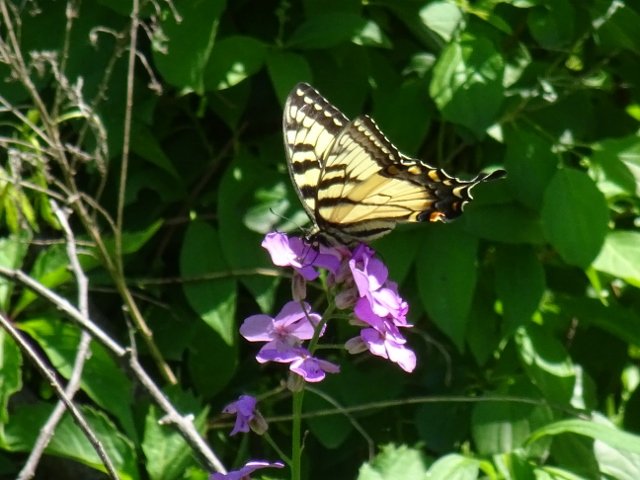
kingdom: Animalia
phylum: Arthropoda
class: Insecta
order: Lepidoptera
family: Papilionidae
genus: Pterourus
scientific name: Pterourus glaucus
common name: Eastern Tiger Swallowtail
